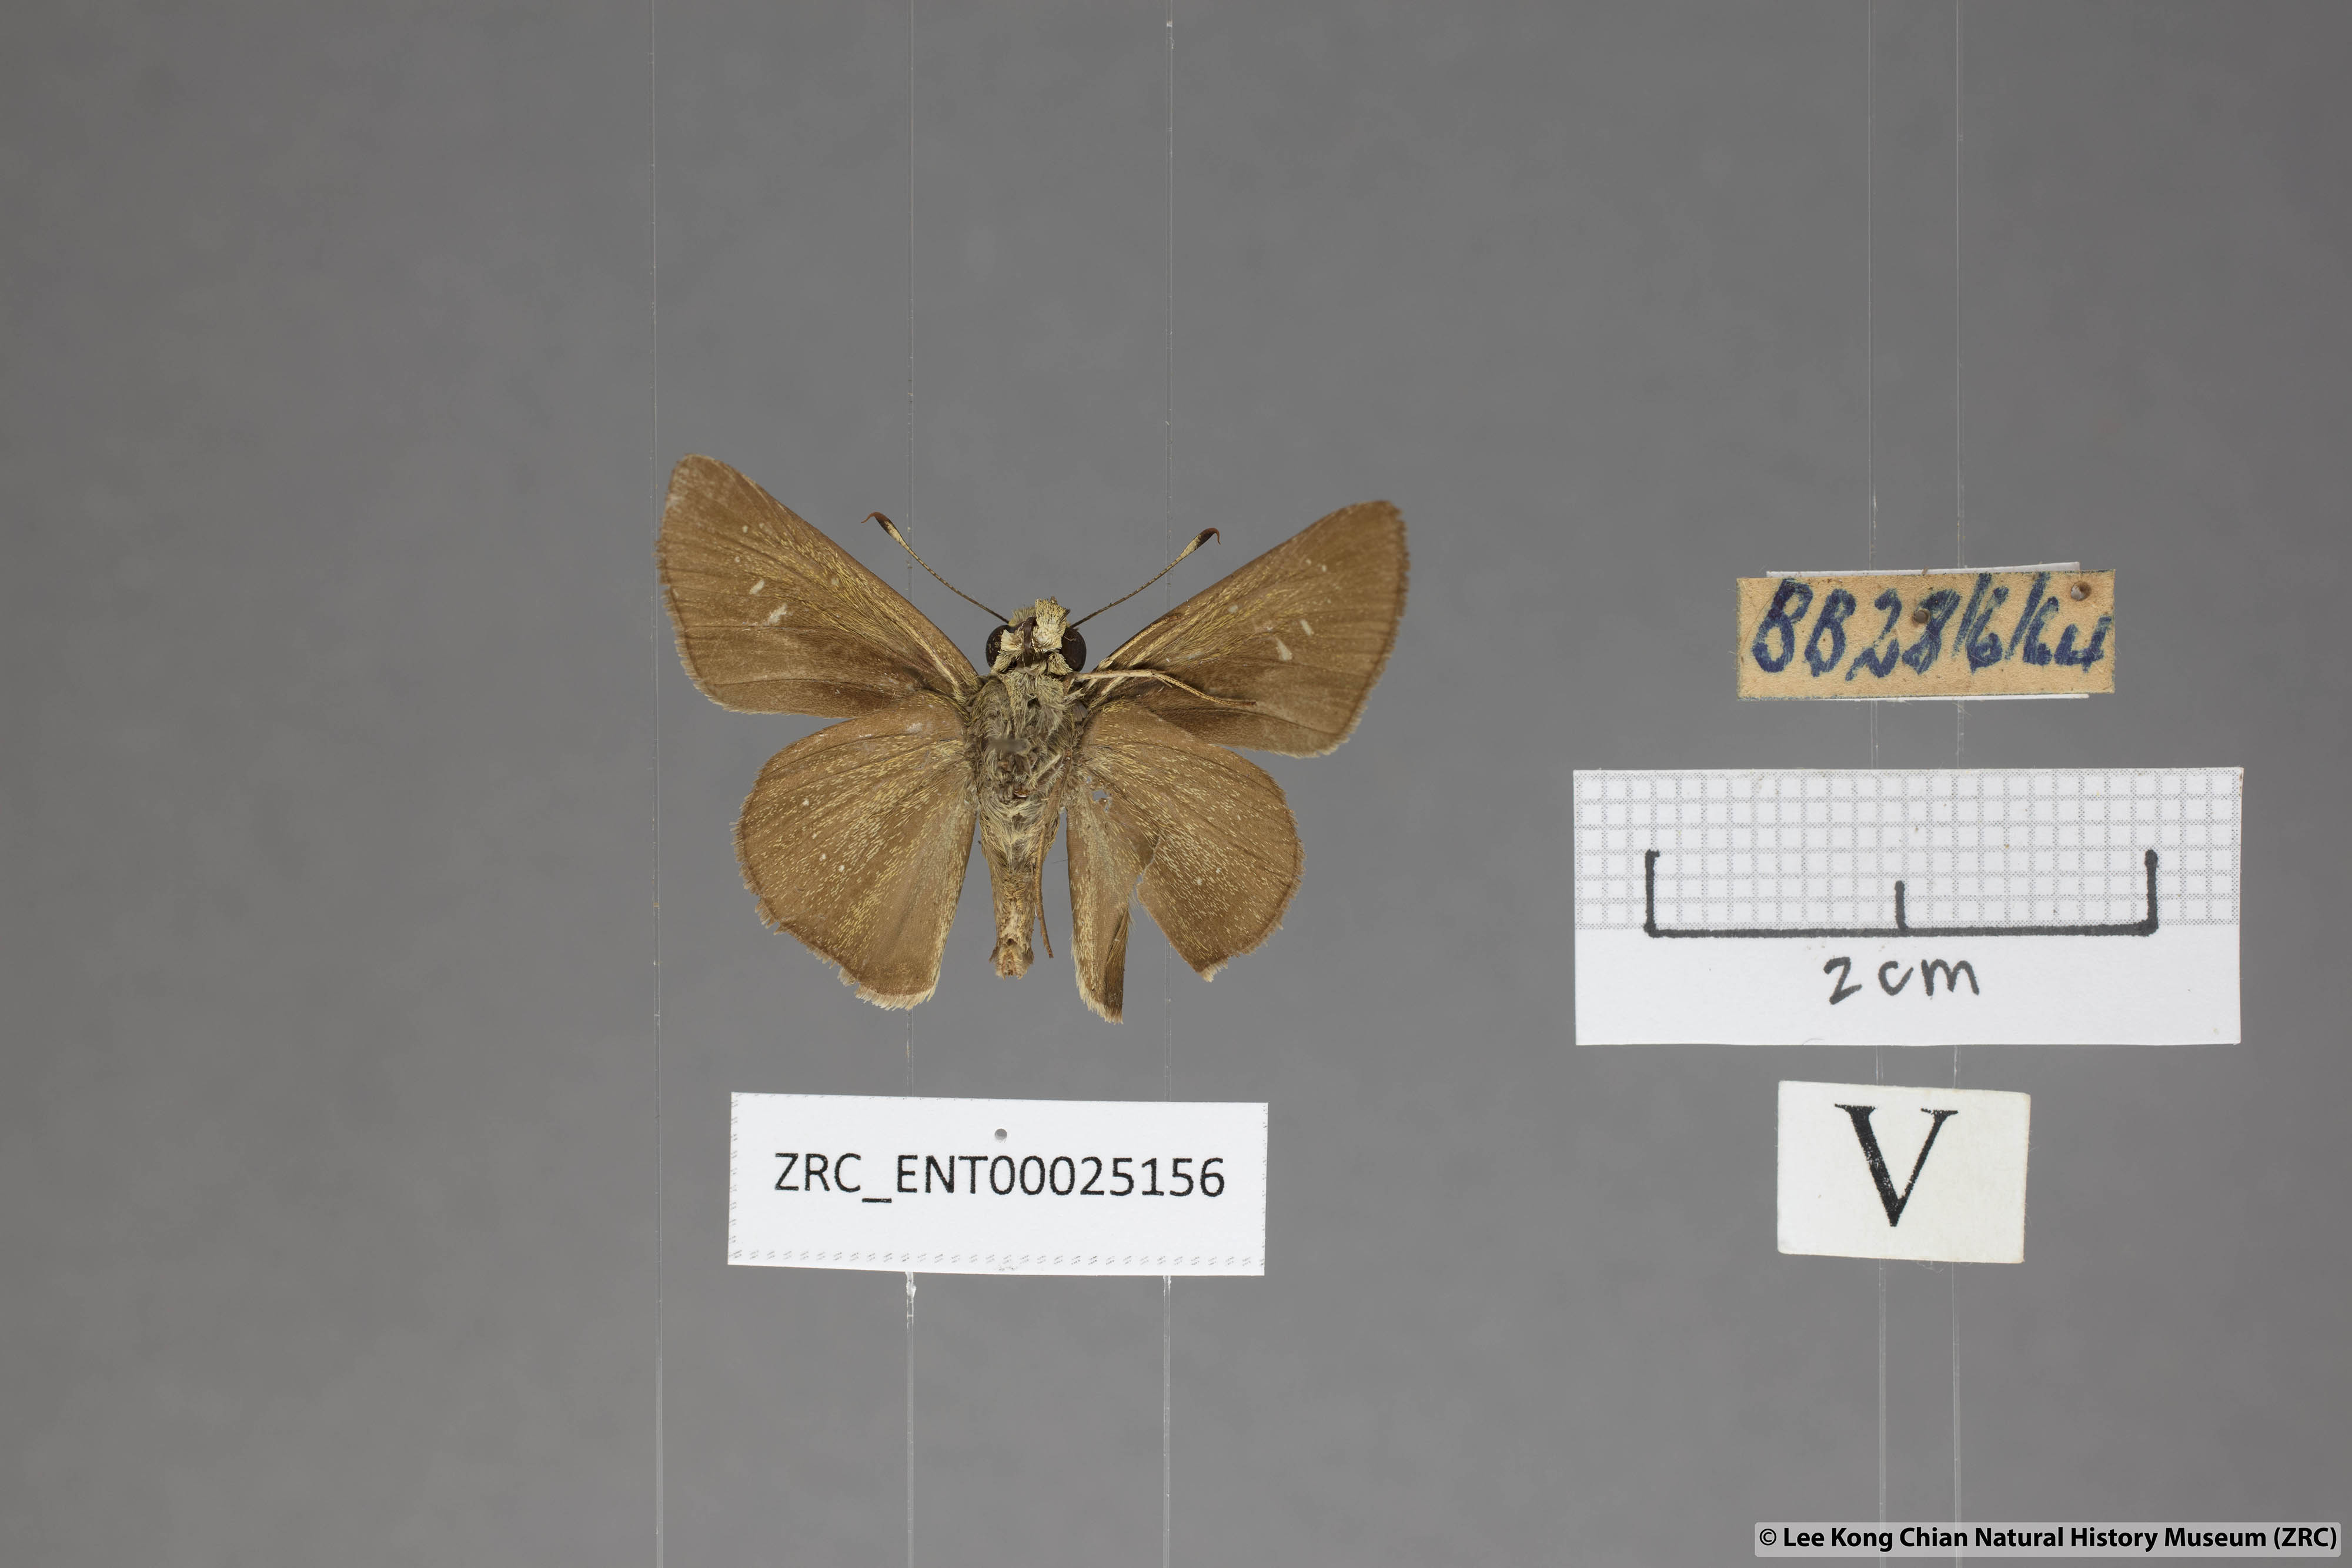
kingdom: Animalia
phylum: Arthropoda
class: Insecta
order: Lepidoptera
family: Hesperiidae
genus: Pelopidas
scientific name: Pelopidas mathias
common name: Black-branded swift
